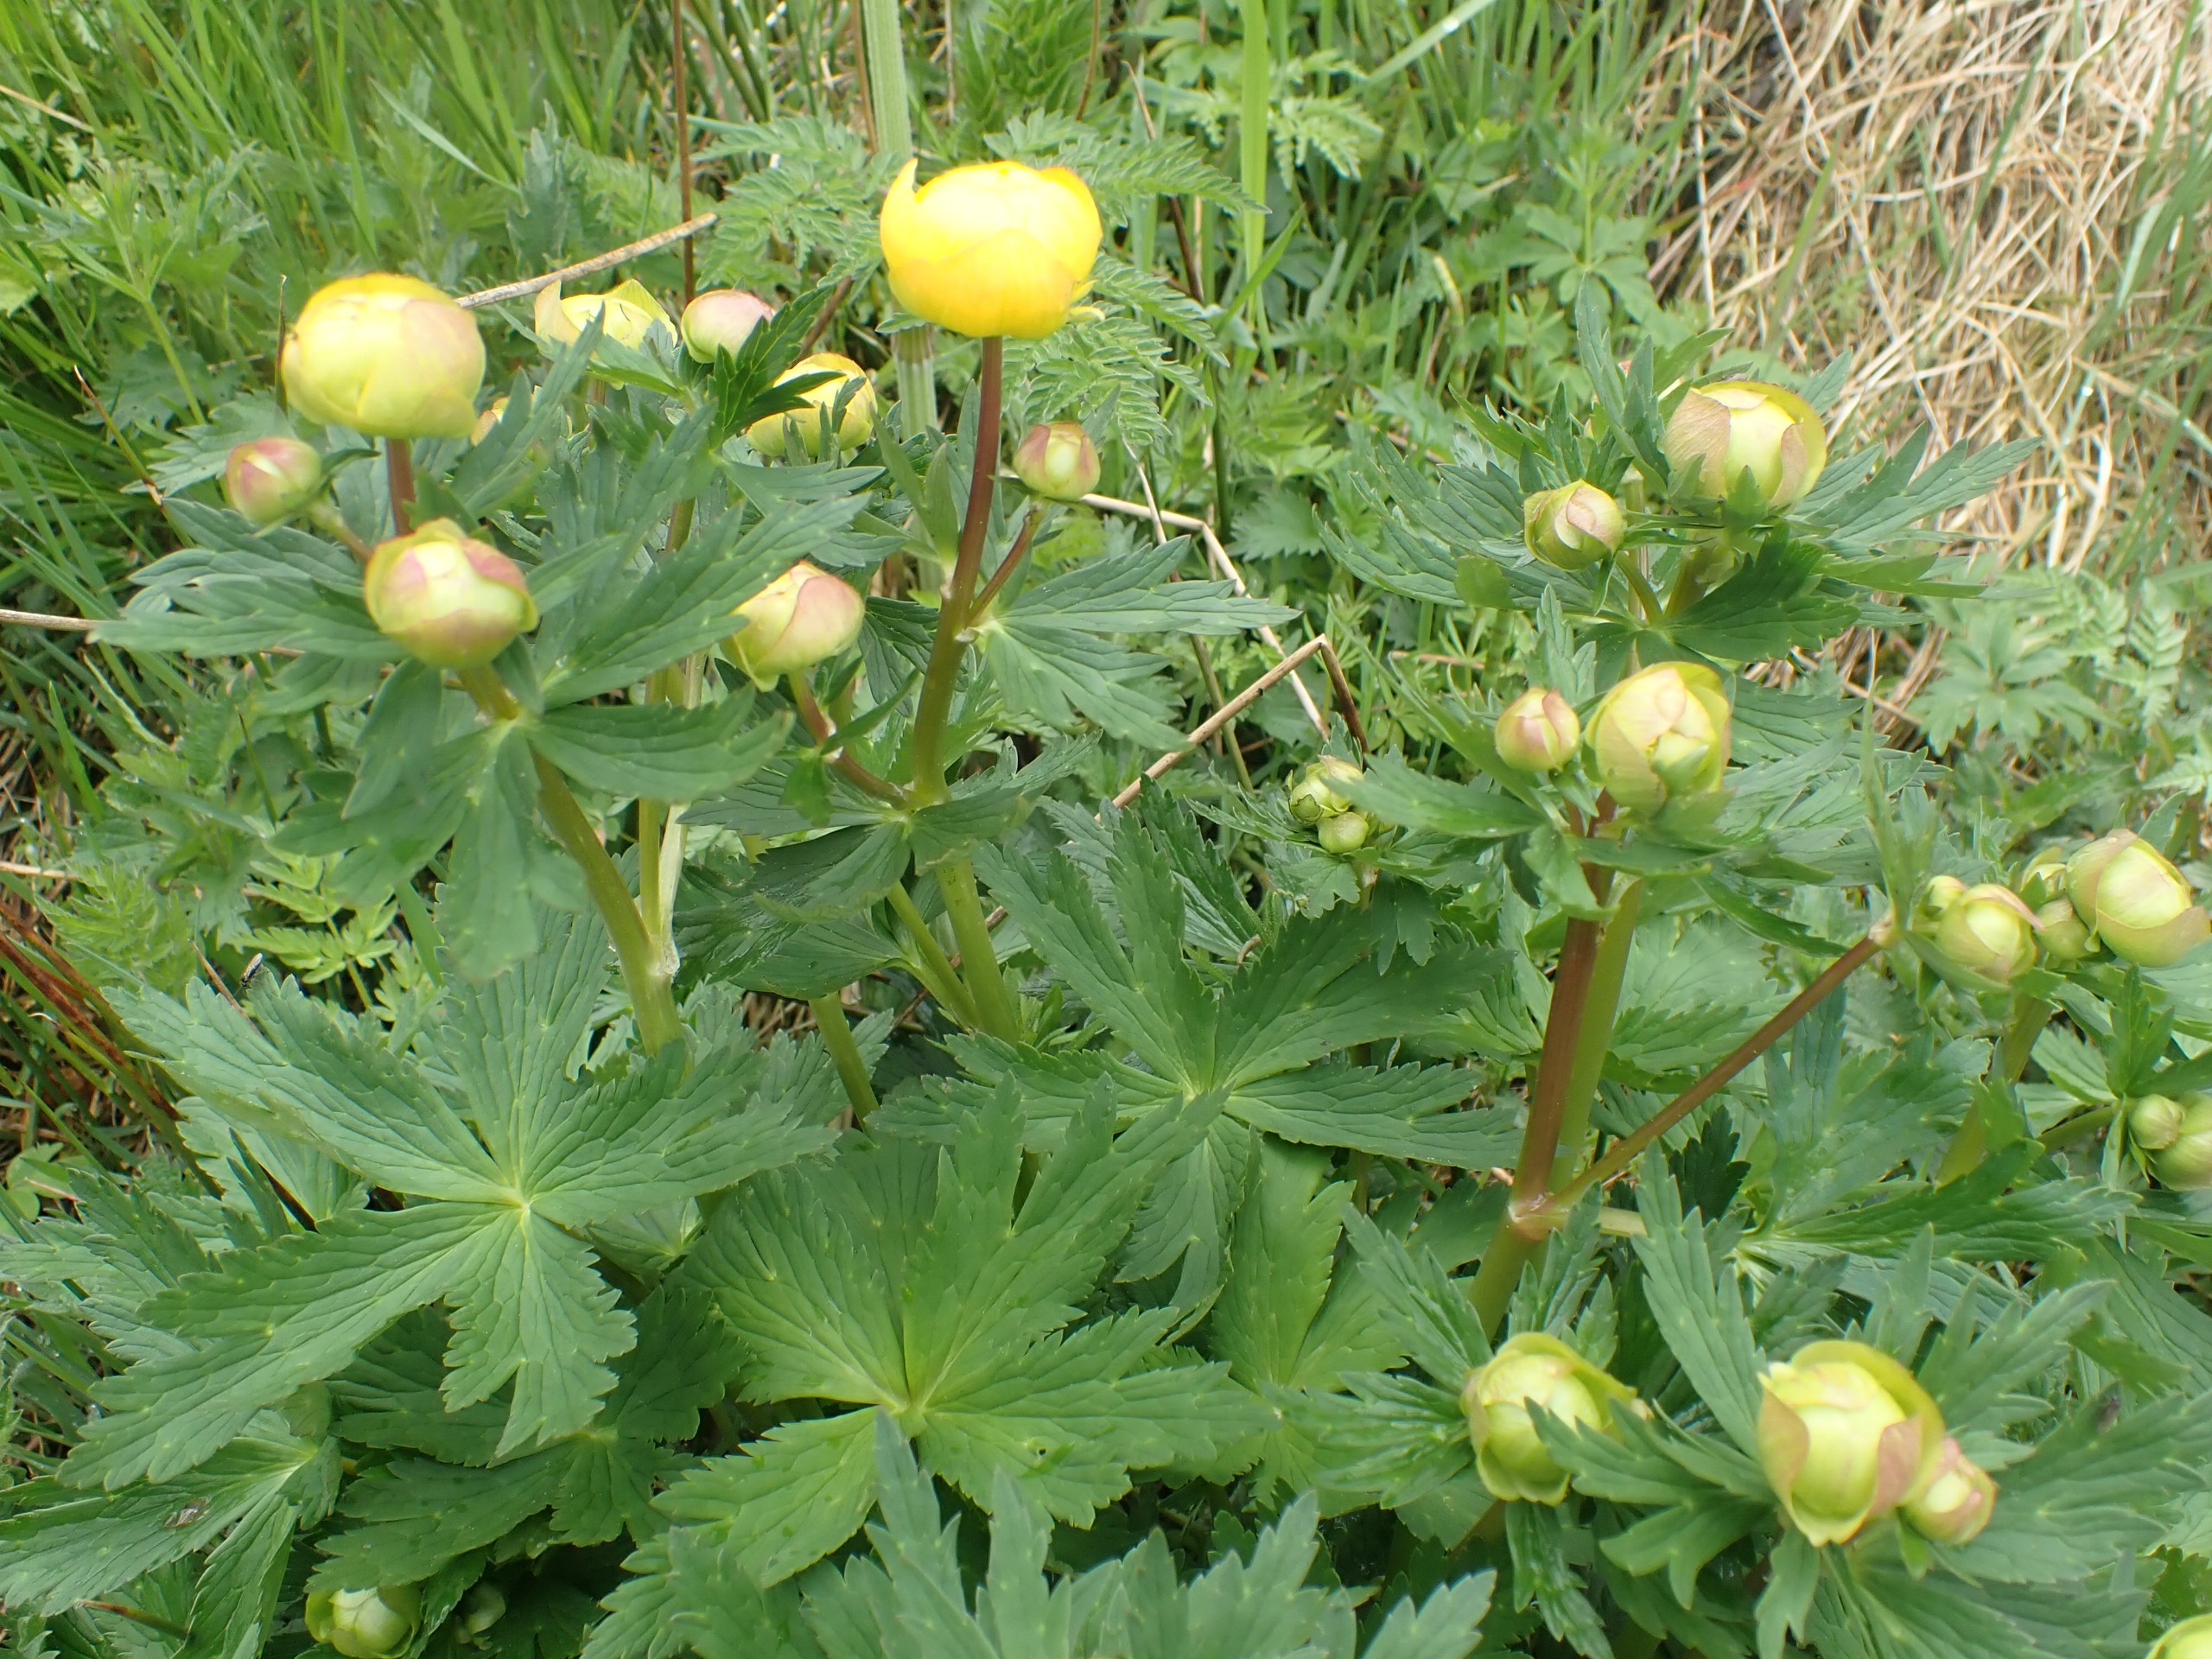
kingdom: Plantae
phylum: Tracheophyta
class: Magnoliopsida
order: Ranunculales
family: Ranunculaceae
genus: Trollius
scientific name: Trollius europaeus
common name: Engblomme
